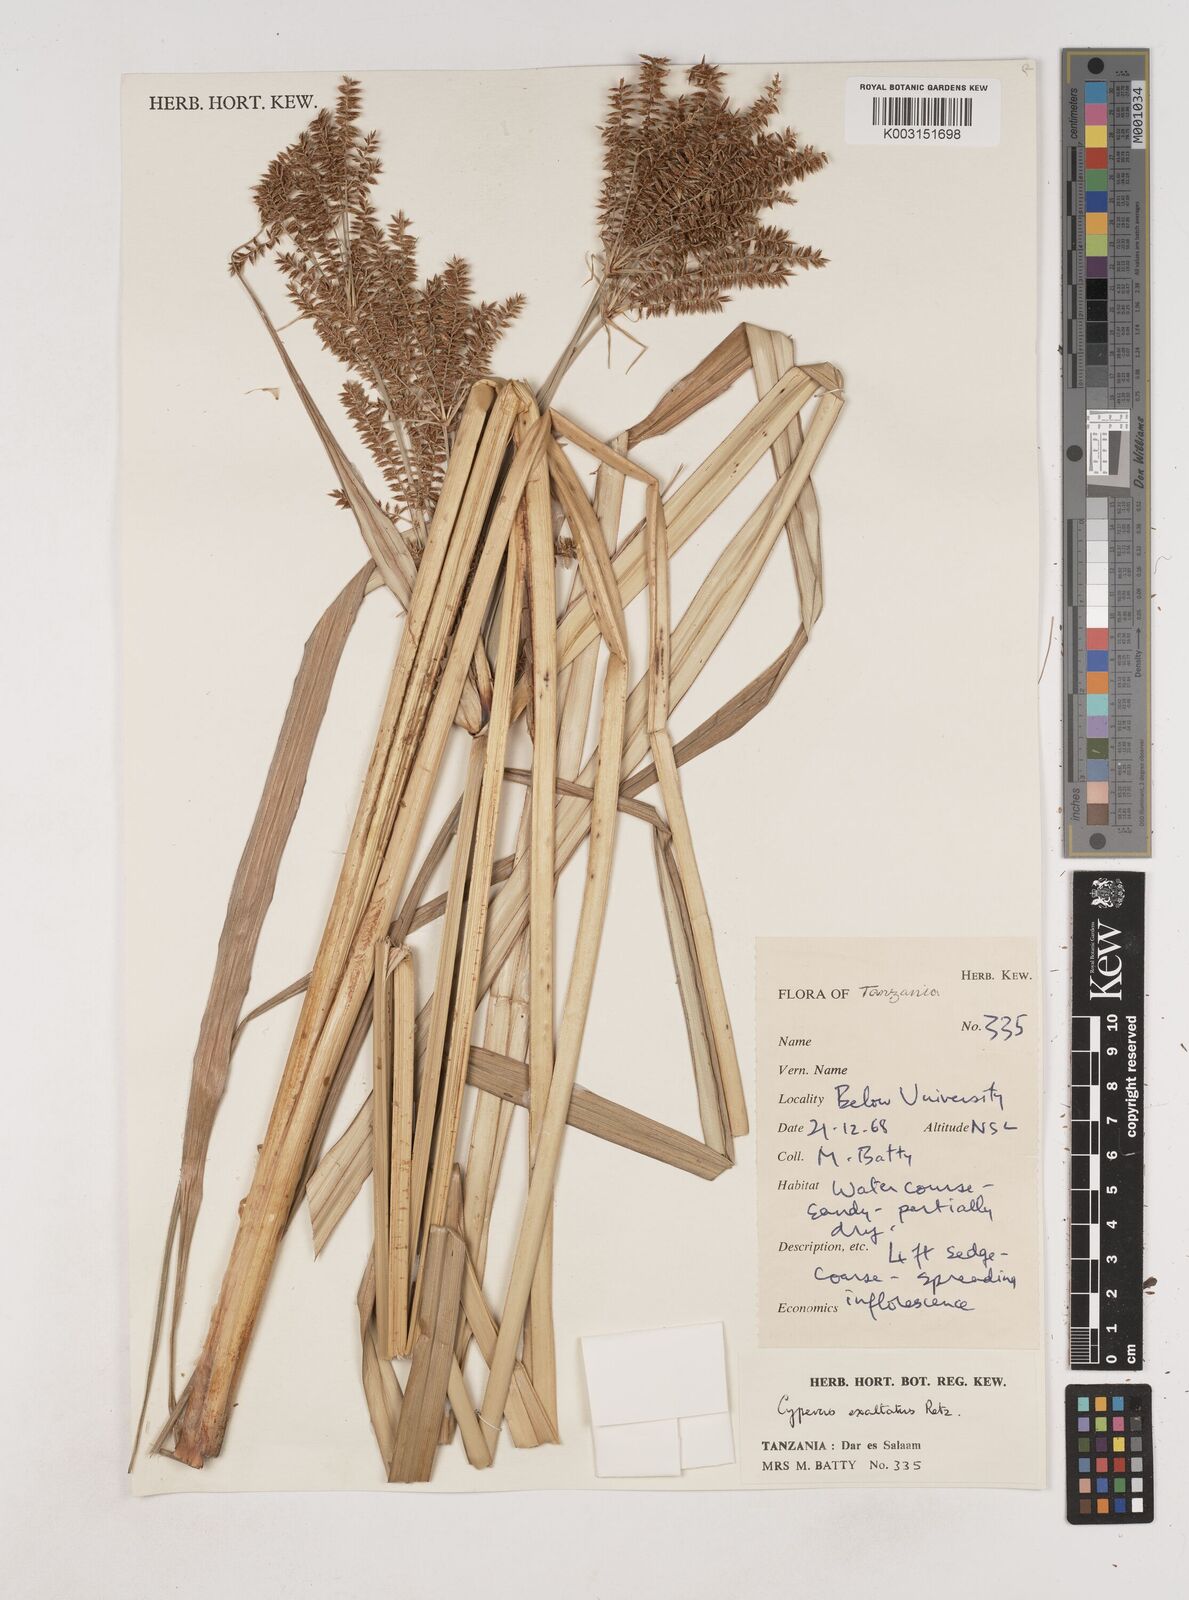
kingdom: Plantae
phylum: Tracheophyta
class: Liliopsida
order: Poales
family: Cyperaceae
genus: Cyperus
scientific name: Cyperus exaltatus
